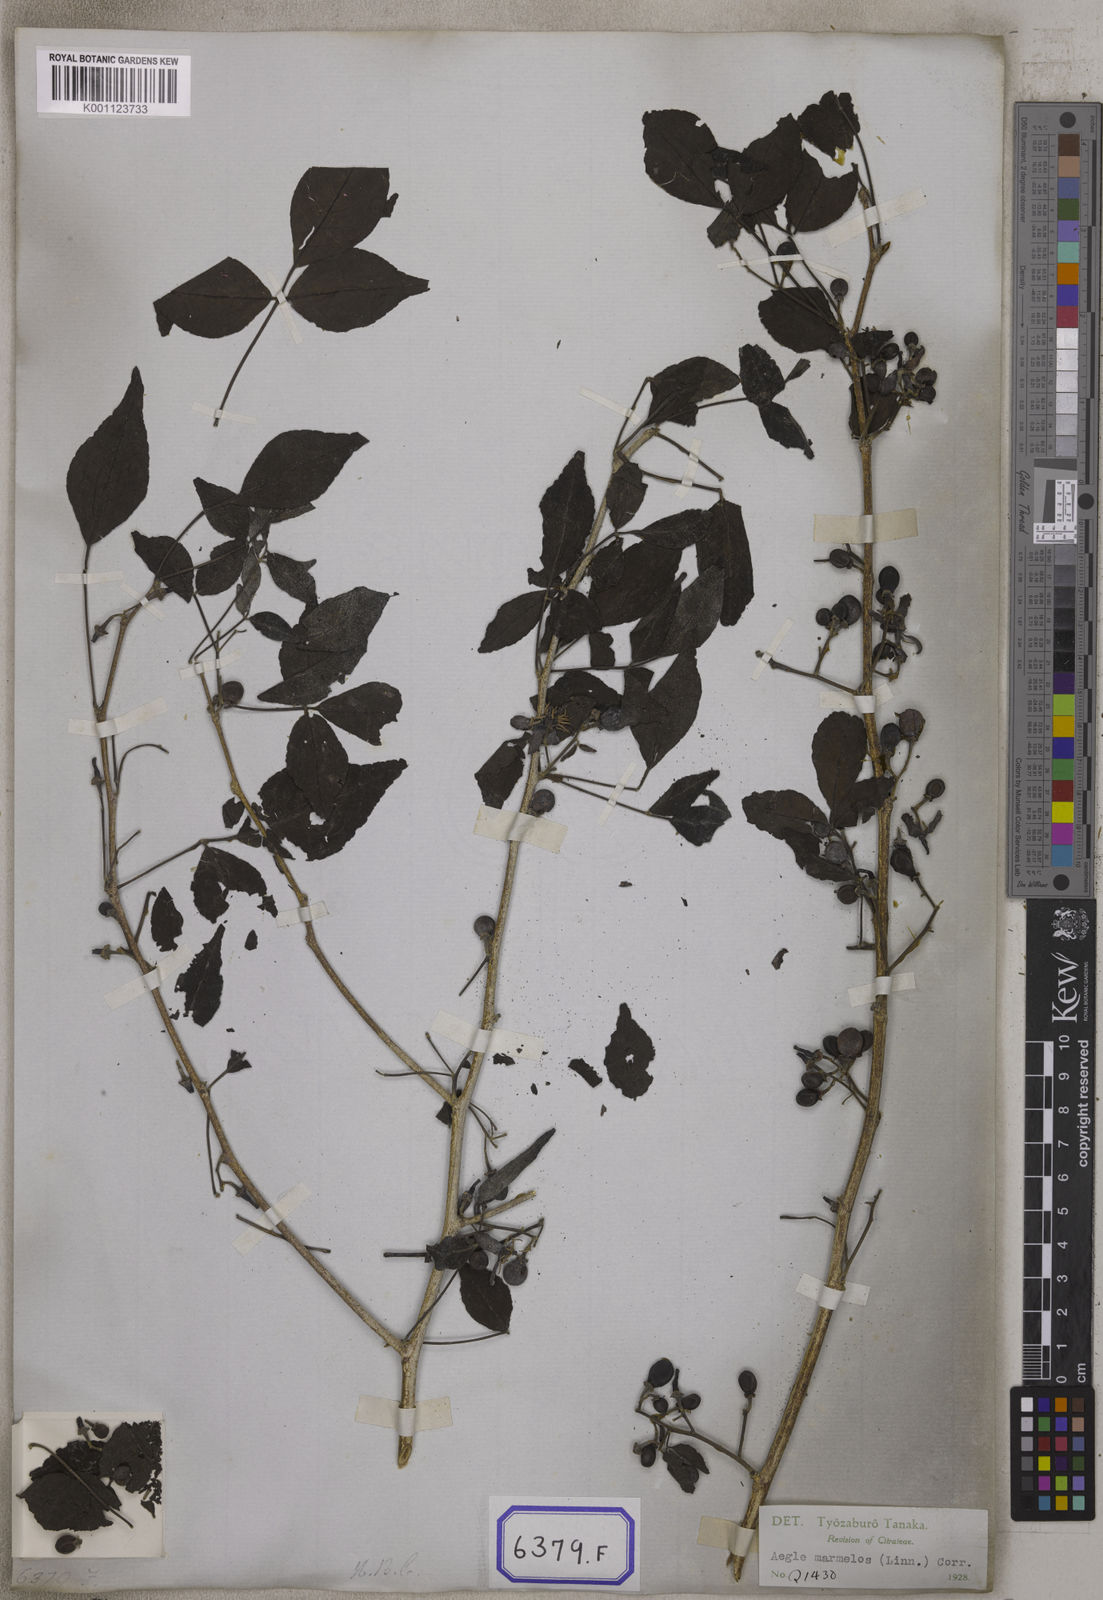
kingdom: Plantae
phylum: Tracheophyta
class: Magnoliopsida
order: Sapindales
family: Rutaceae
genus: Aegle
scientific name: Aegle marmelos
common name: Bael
